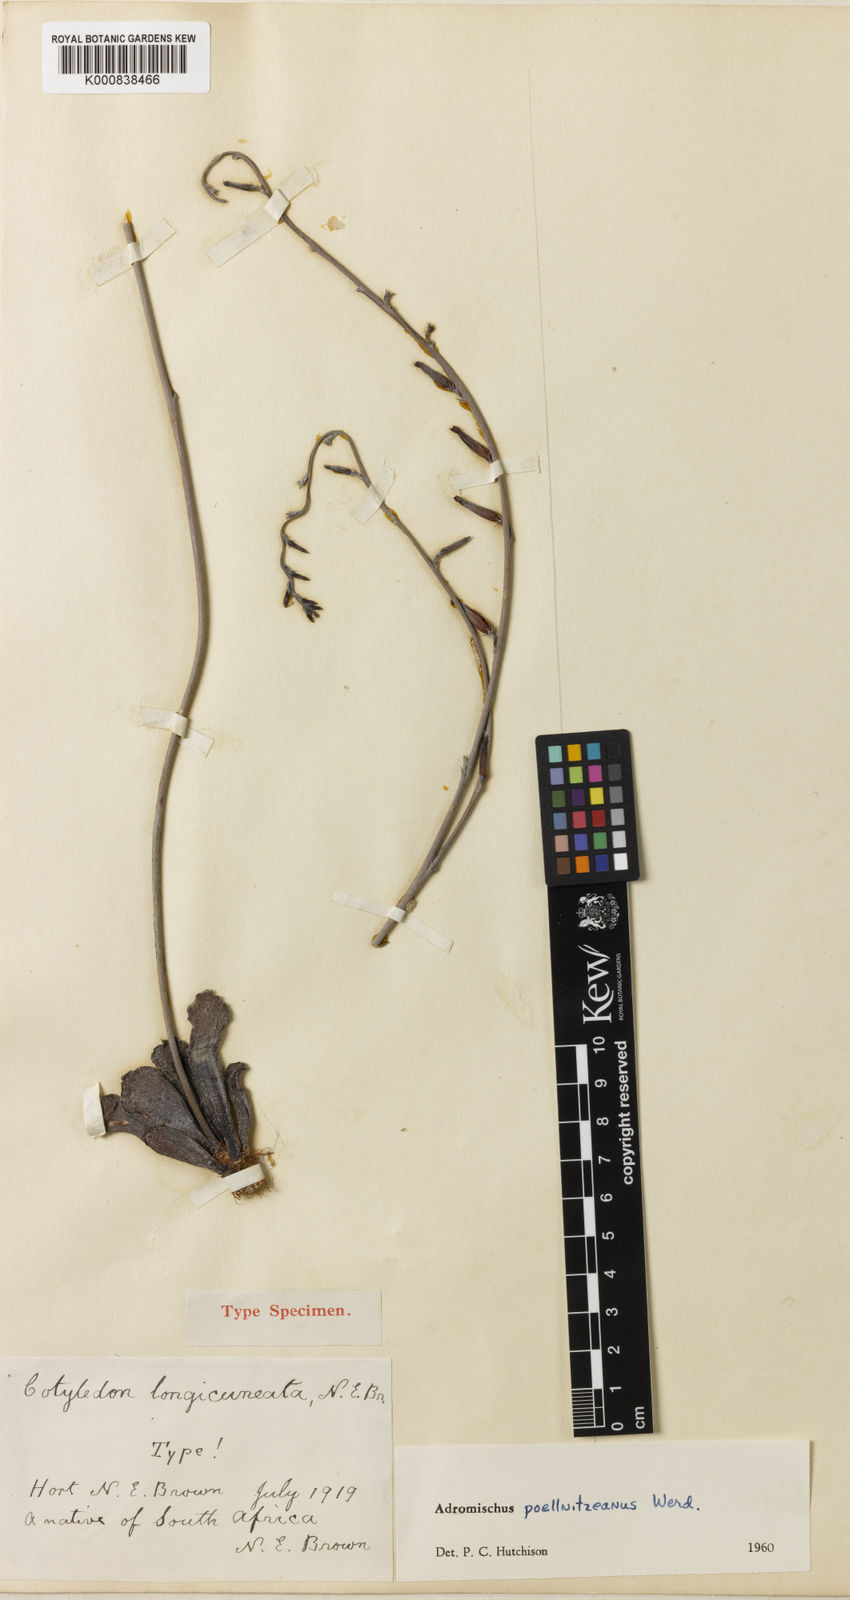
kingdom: Plantae
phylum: Tracheophyta
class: Magnoliopsida
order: Saxifragales
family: Crassulaceae
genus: Adromischus
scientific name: Adromischus cristatus
